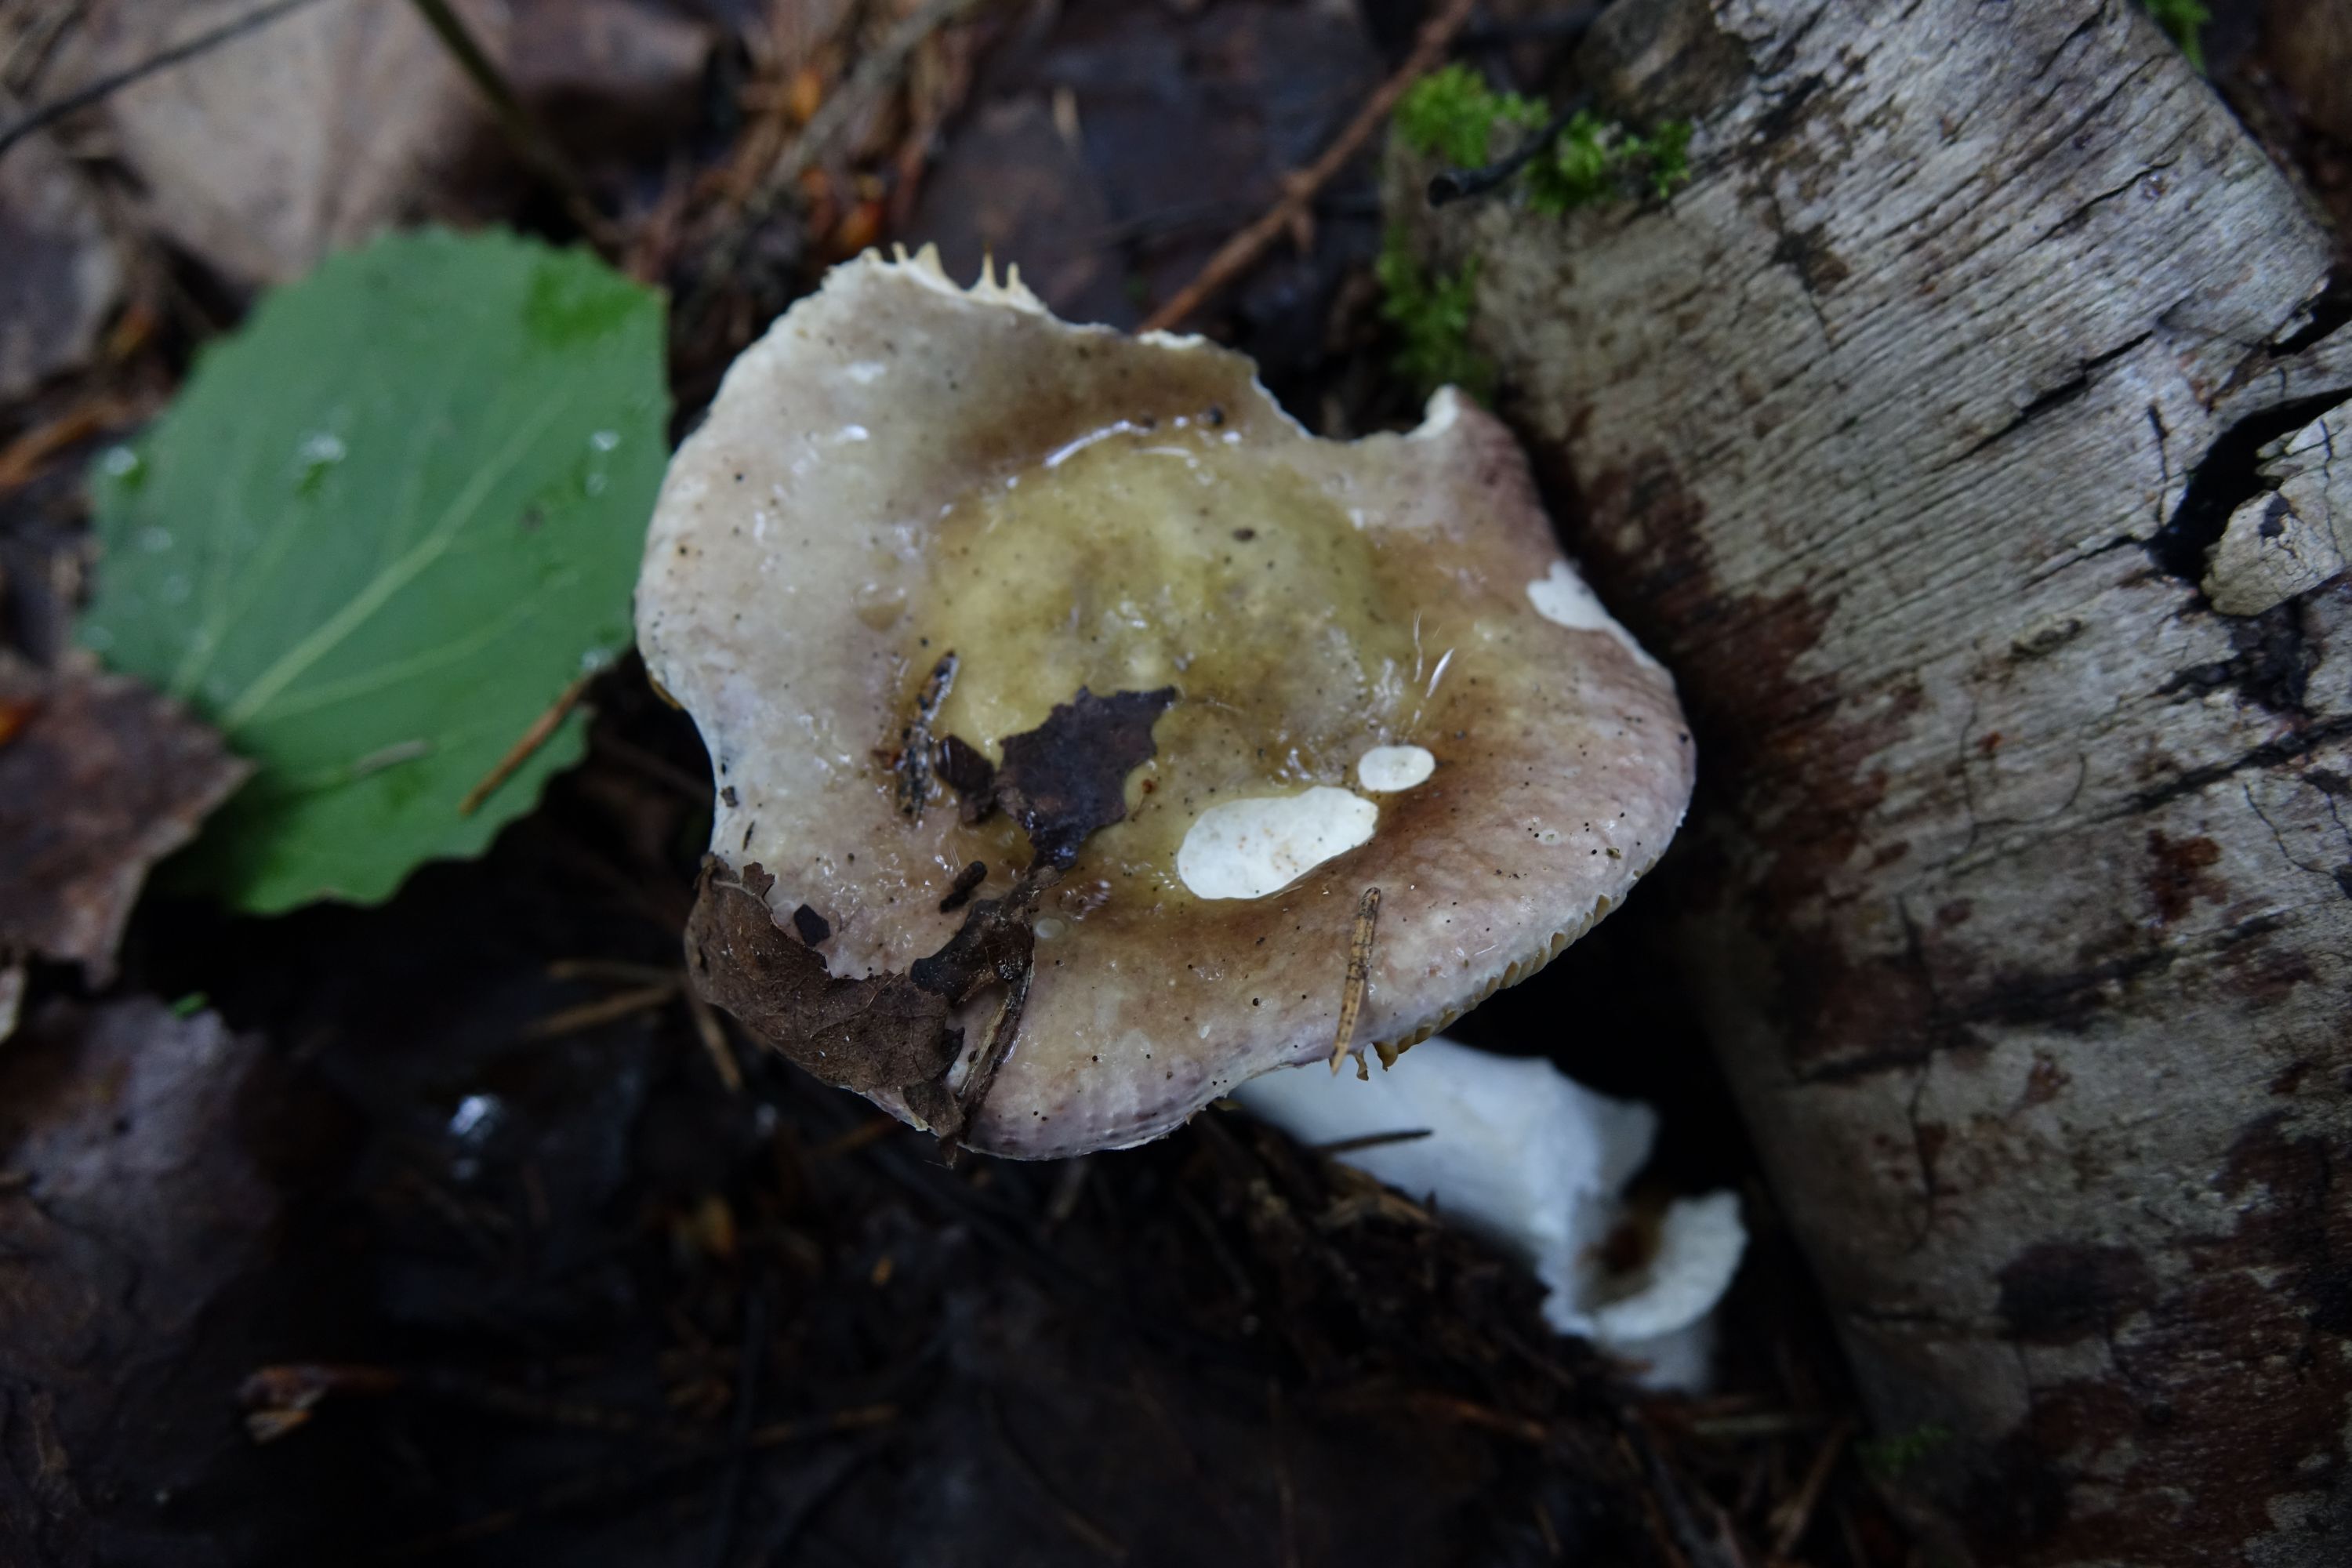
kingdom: Fungi
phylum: Basidiomycota
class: Agaricomycetes
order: Russulales
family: Russulaceae
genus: Russula
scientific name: Russula postiana
